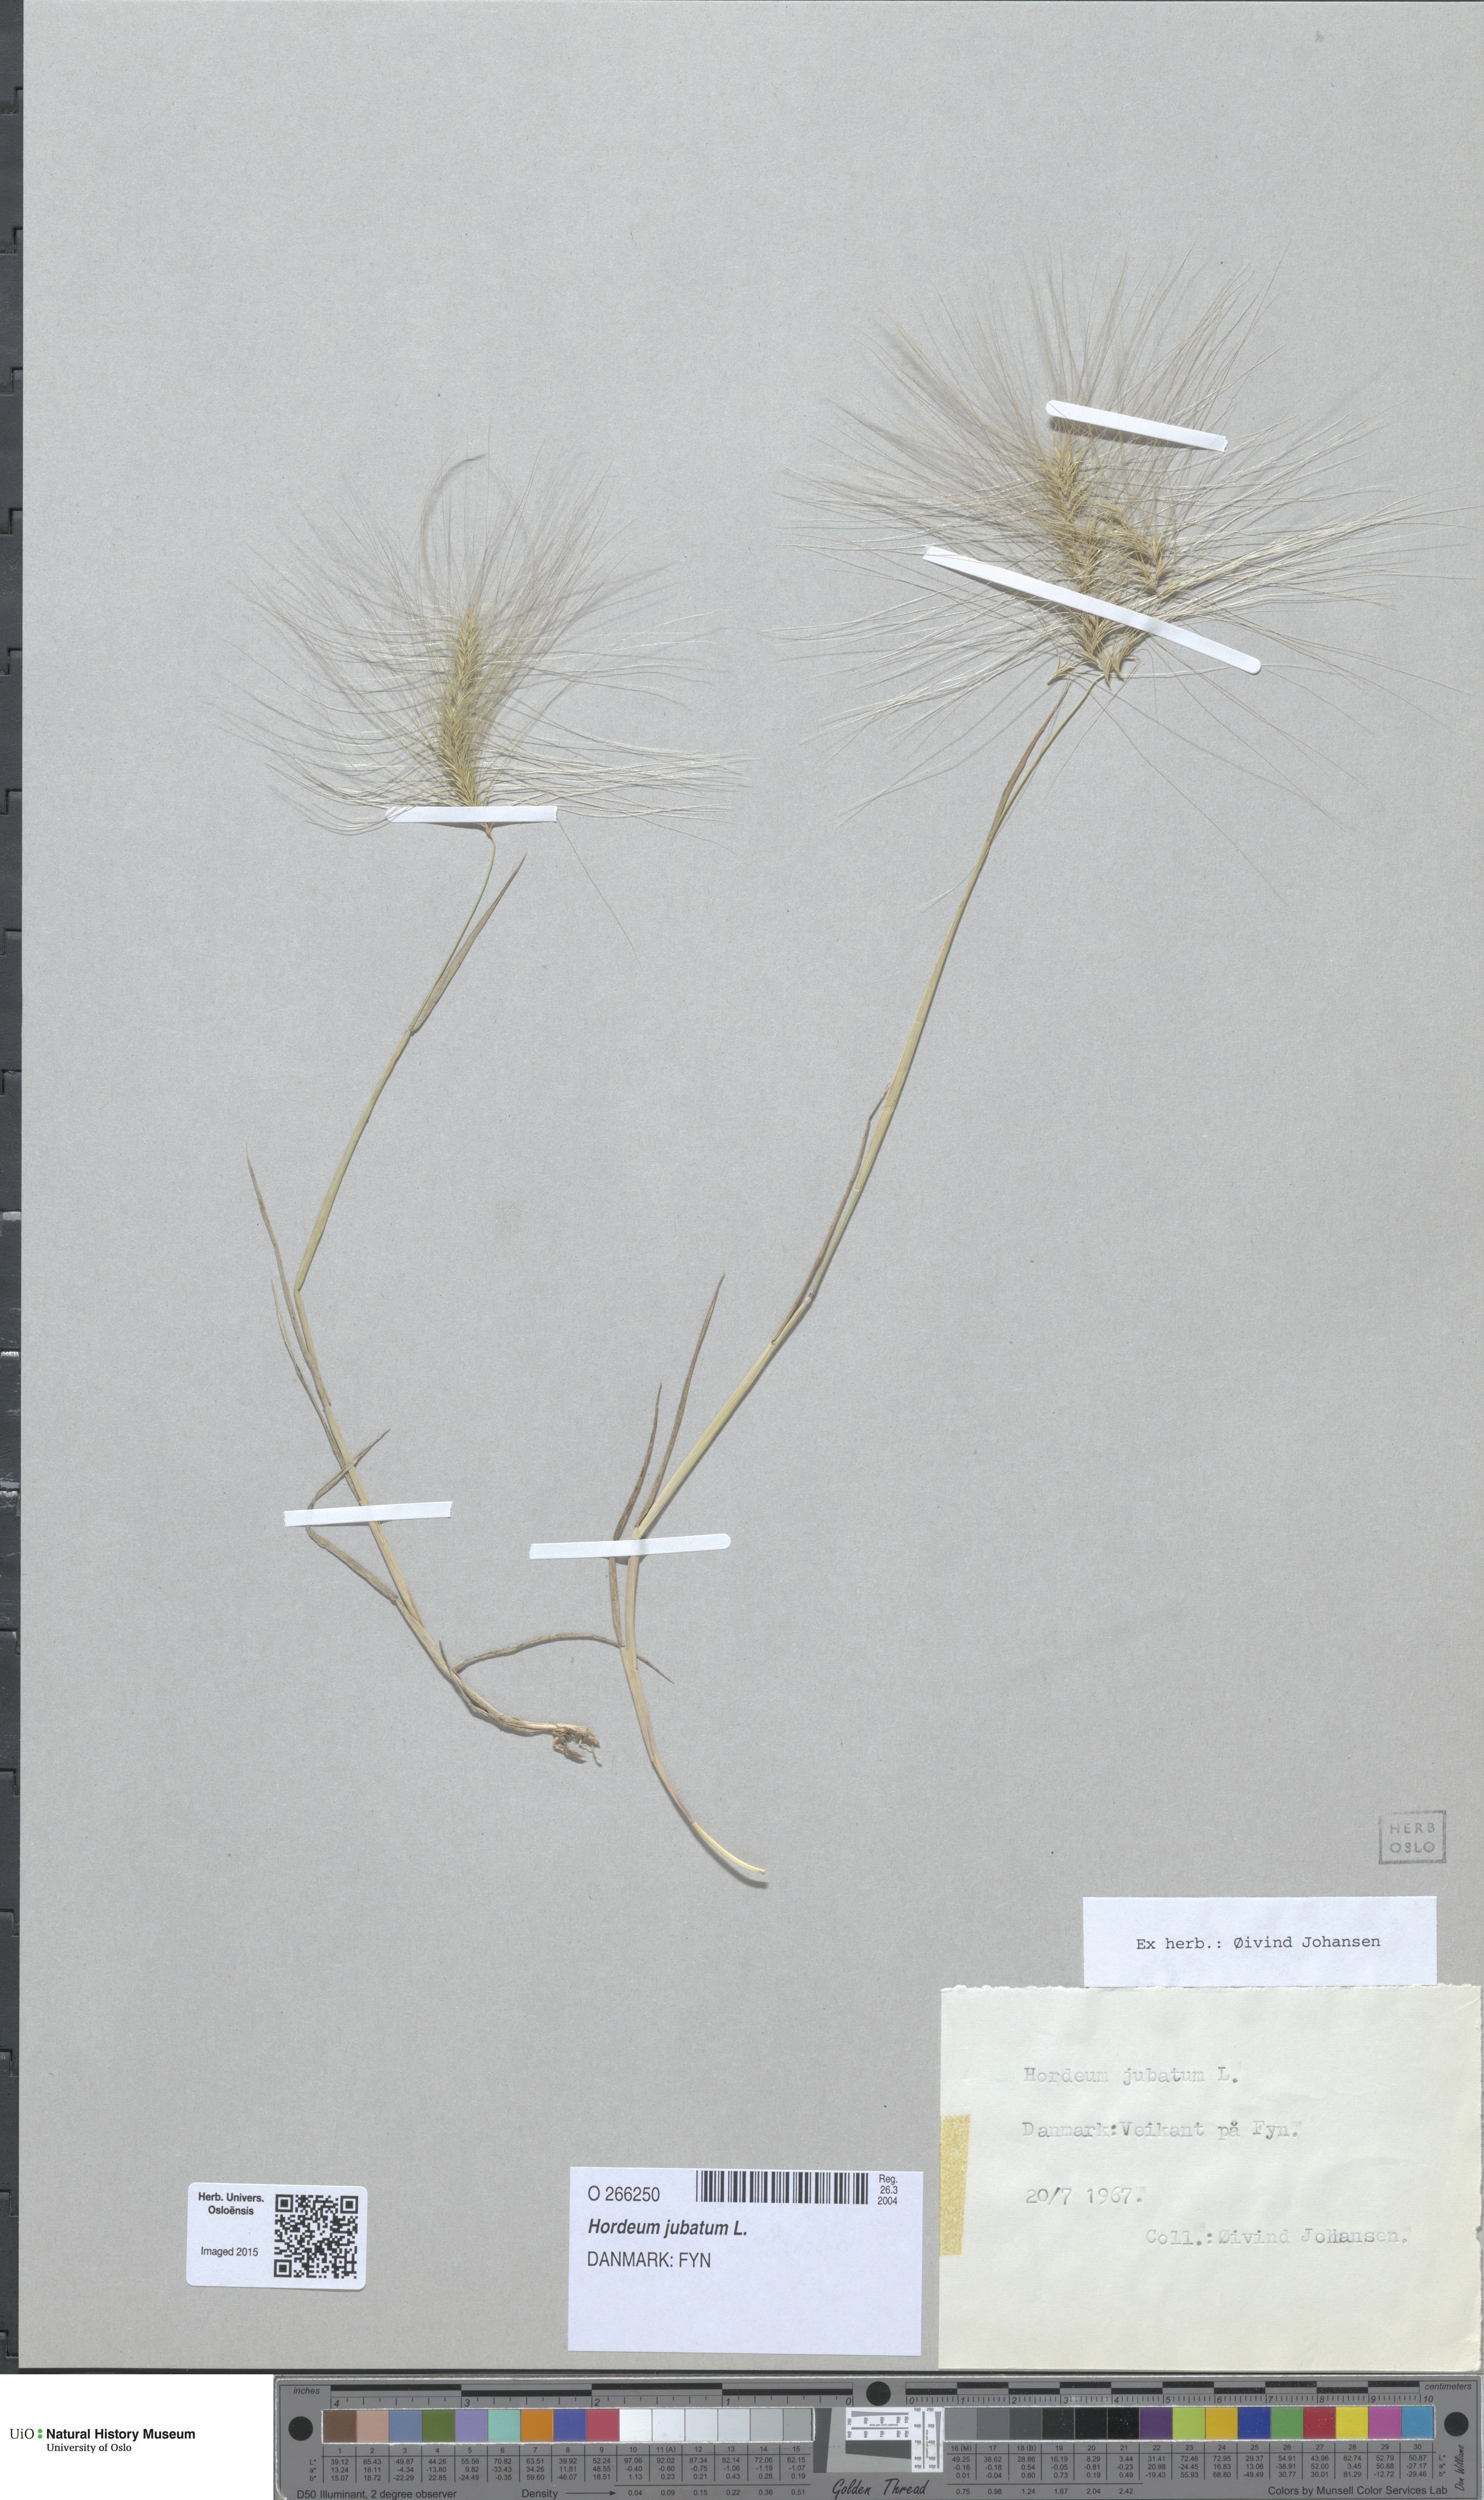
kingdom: Plantae
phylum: Tracheophyta
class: Liliopsida
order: Poales
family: Poaceae
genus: Hordeum
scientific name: Hordeum jubatum
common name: Foxtail barley
